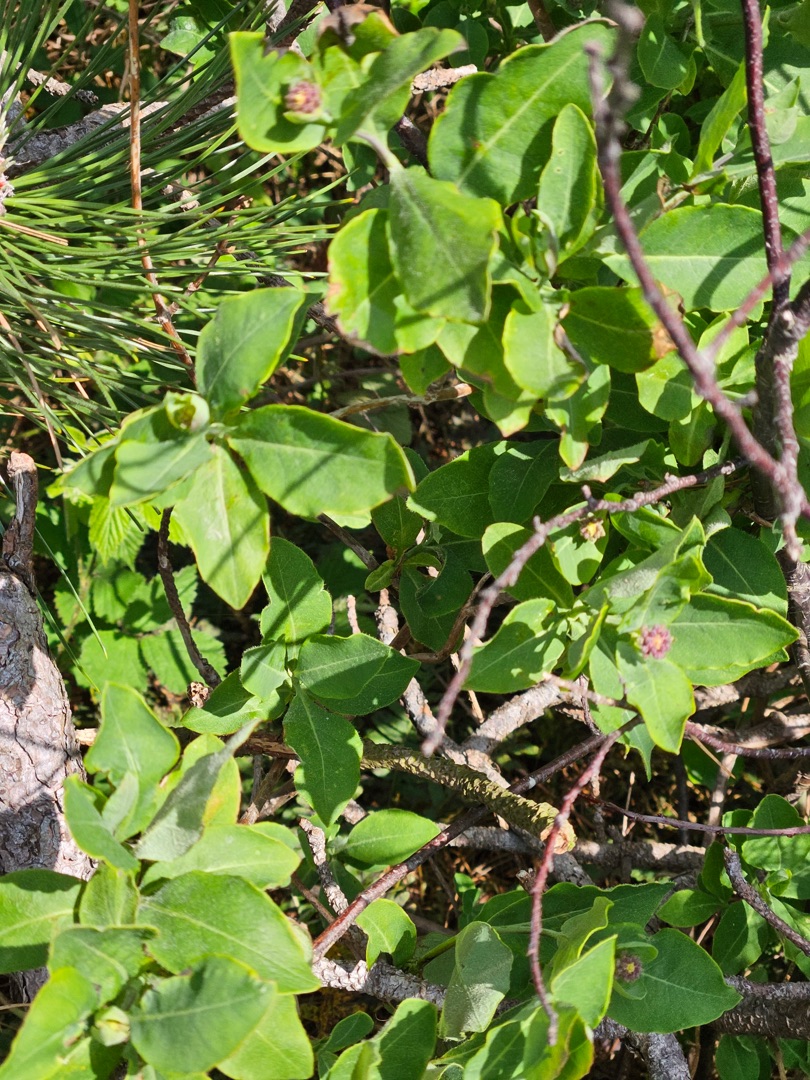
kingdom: Plantae
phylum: Tracheophyta
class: Magnoliopsida
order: Dipsacales
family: Caprifoliaceae
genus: Lonicera
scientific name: Lonicera periclymenum
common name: Almindelig gedeblad
